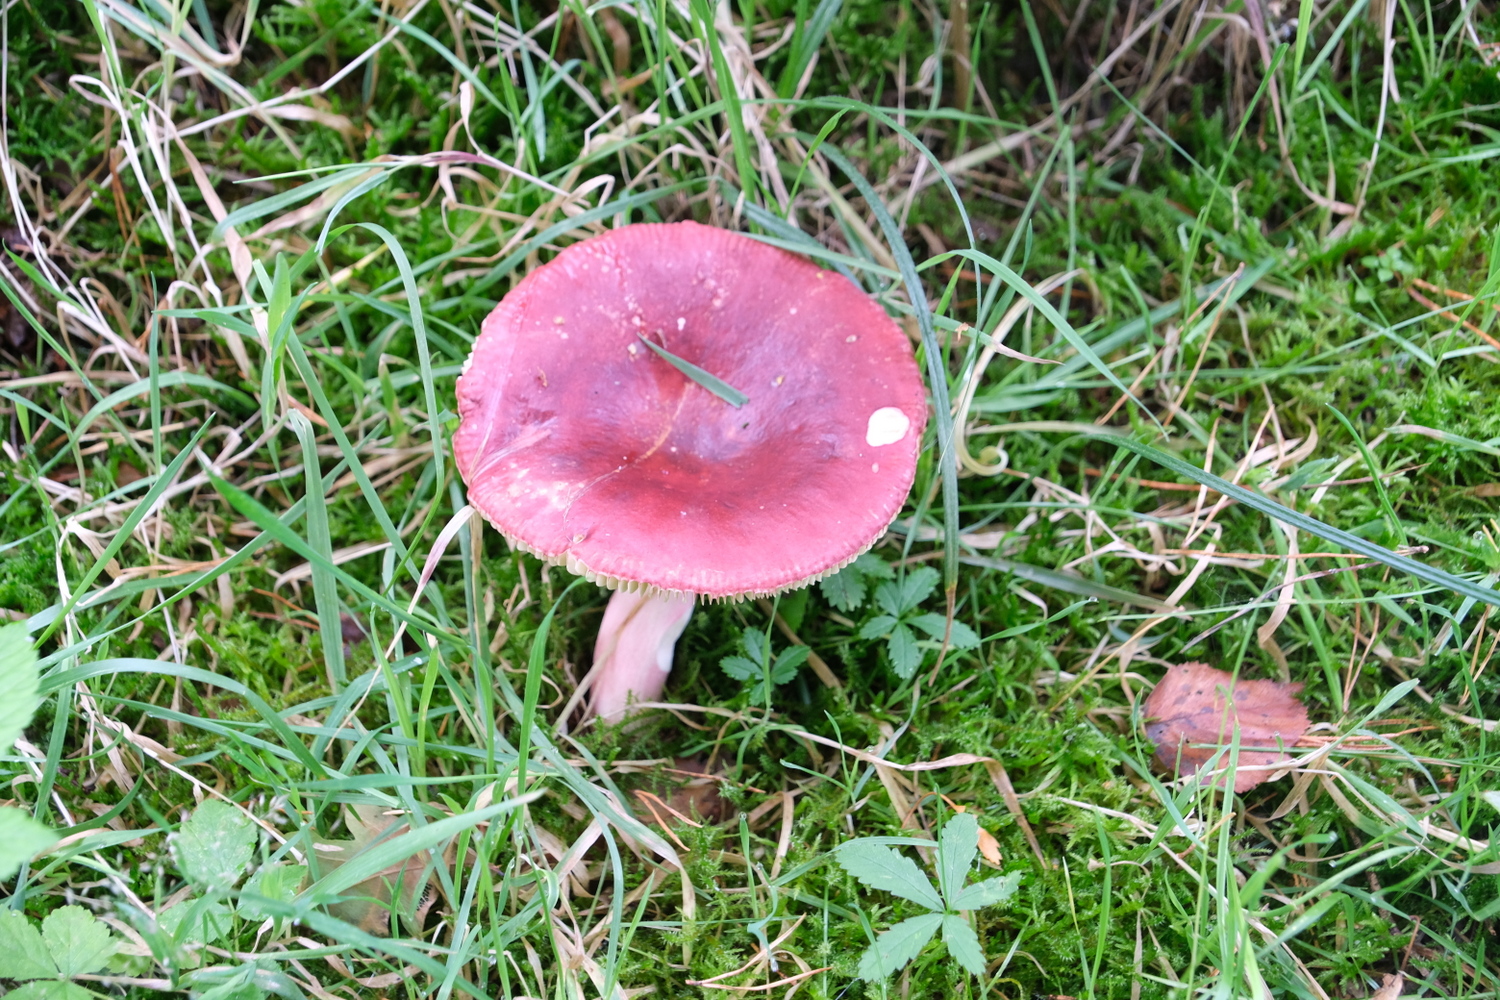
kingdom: Fungi
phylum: Basidiomycota
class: Agaricomycetes
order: Russulales
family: Russulaceae
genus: Russula
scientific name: Russula xerampelina
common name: hummer-skørhat
